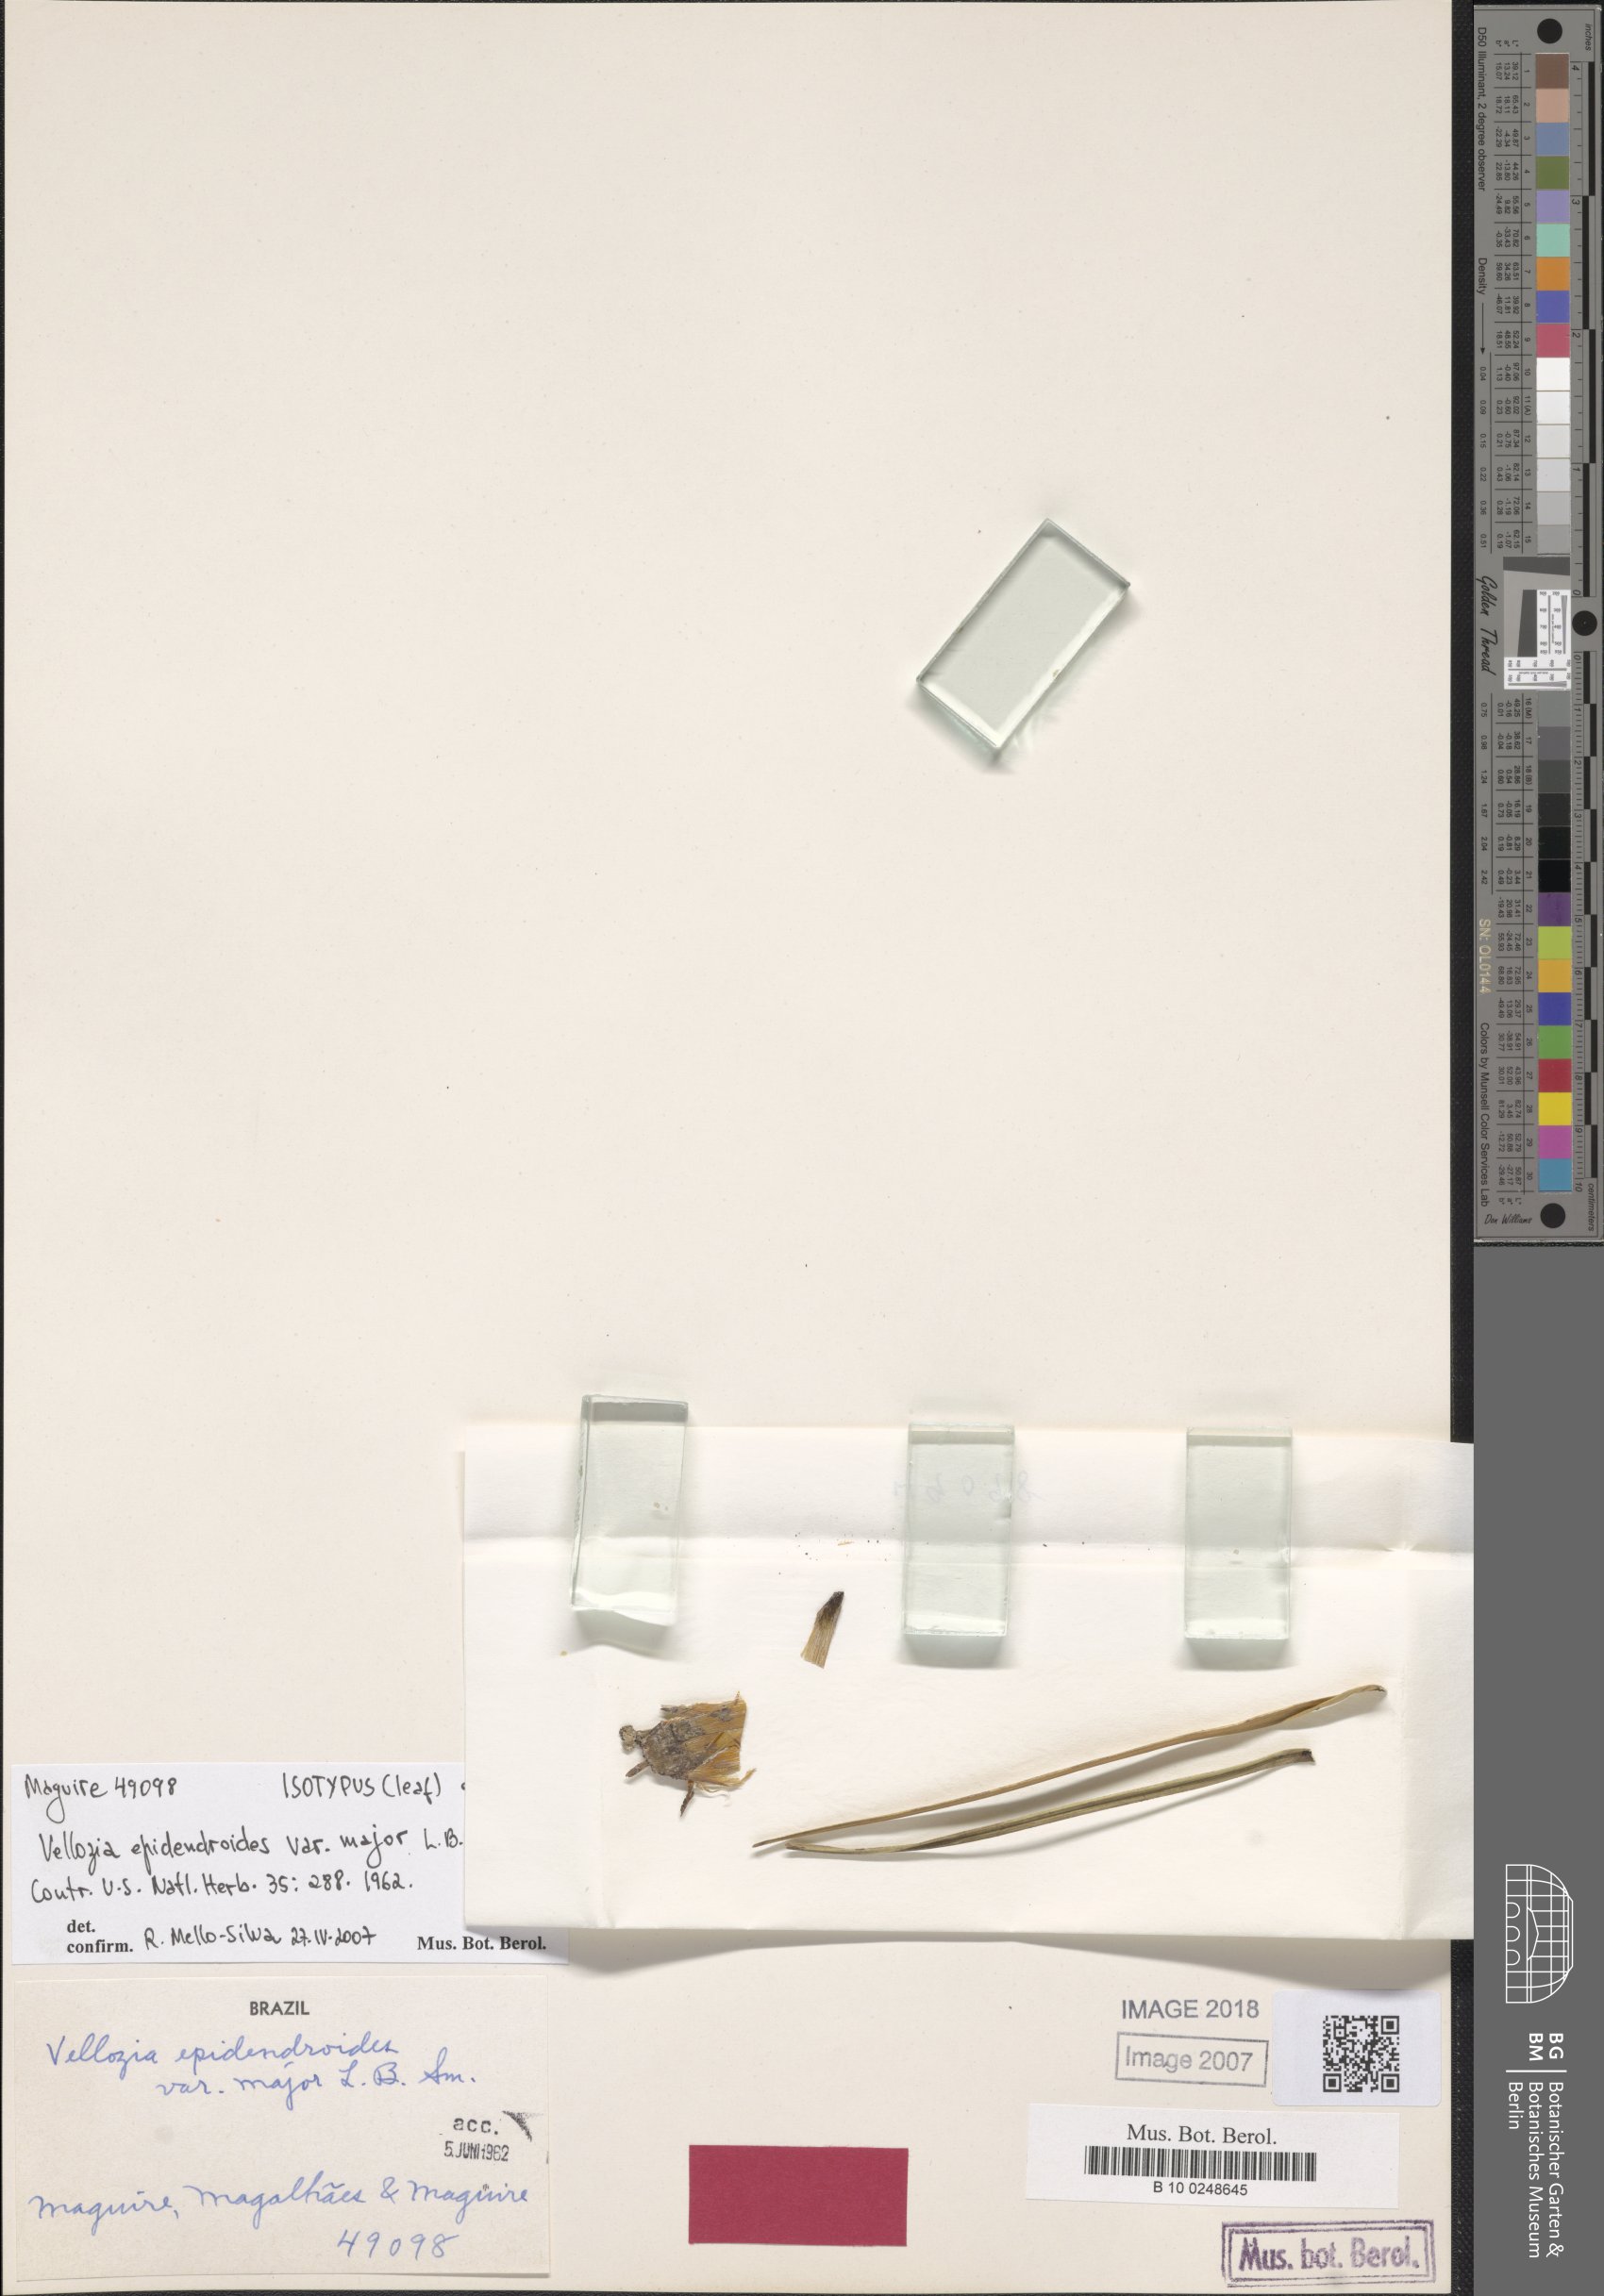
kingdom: Plantae
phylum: Tracheophyta
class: Liliopsida
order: Pandanales
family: Velloziaceae
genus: Vellozia
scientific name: Vellozia ornithophila
